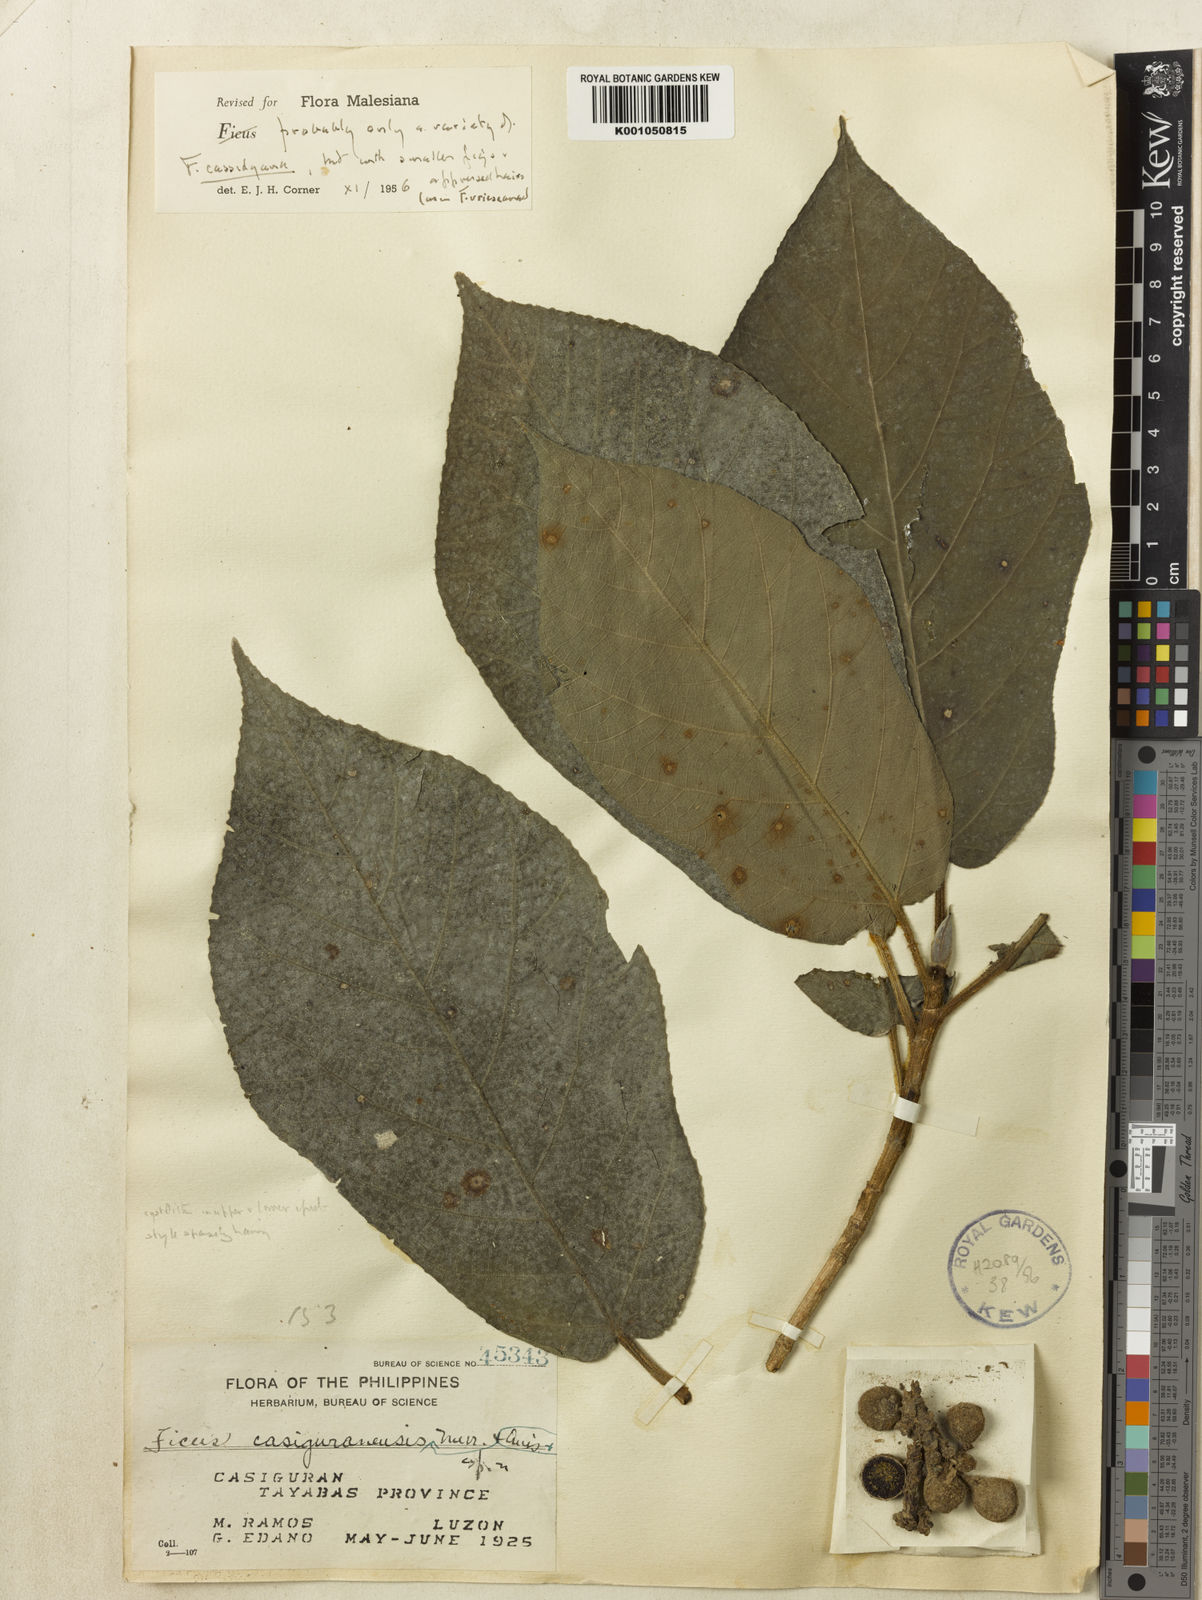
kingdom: Plantae
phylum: Tracheophyta
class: Magnoliopsida
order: Rosales
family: Moraceae
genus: Ficus
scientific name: Ficus cassidyana
